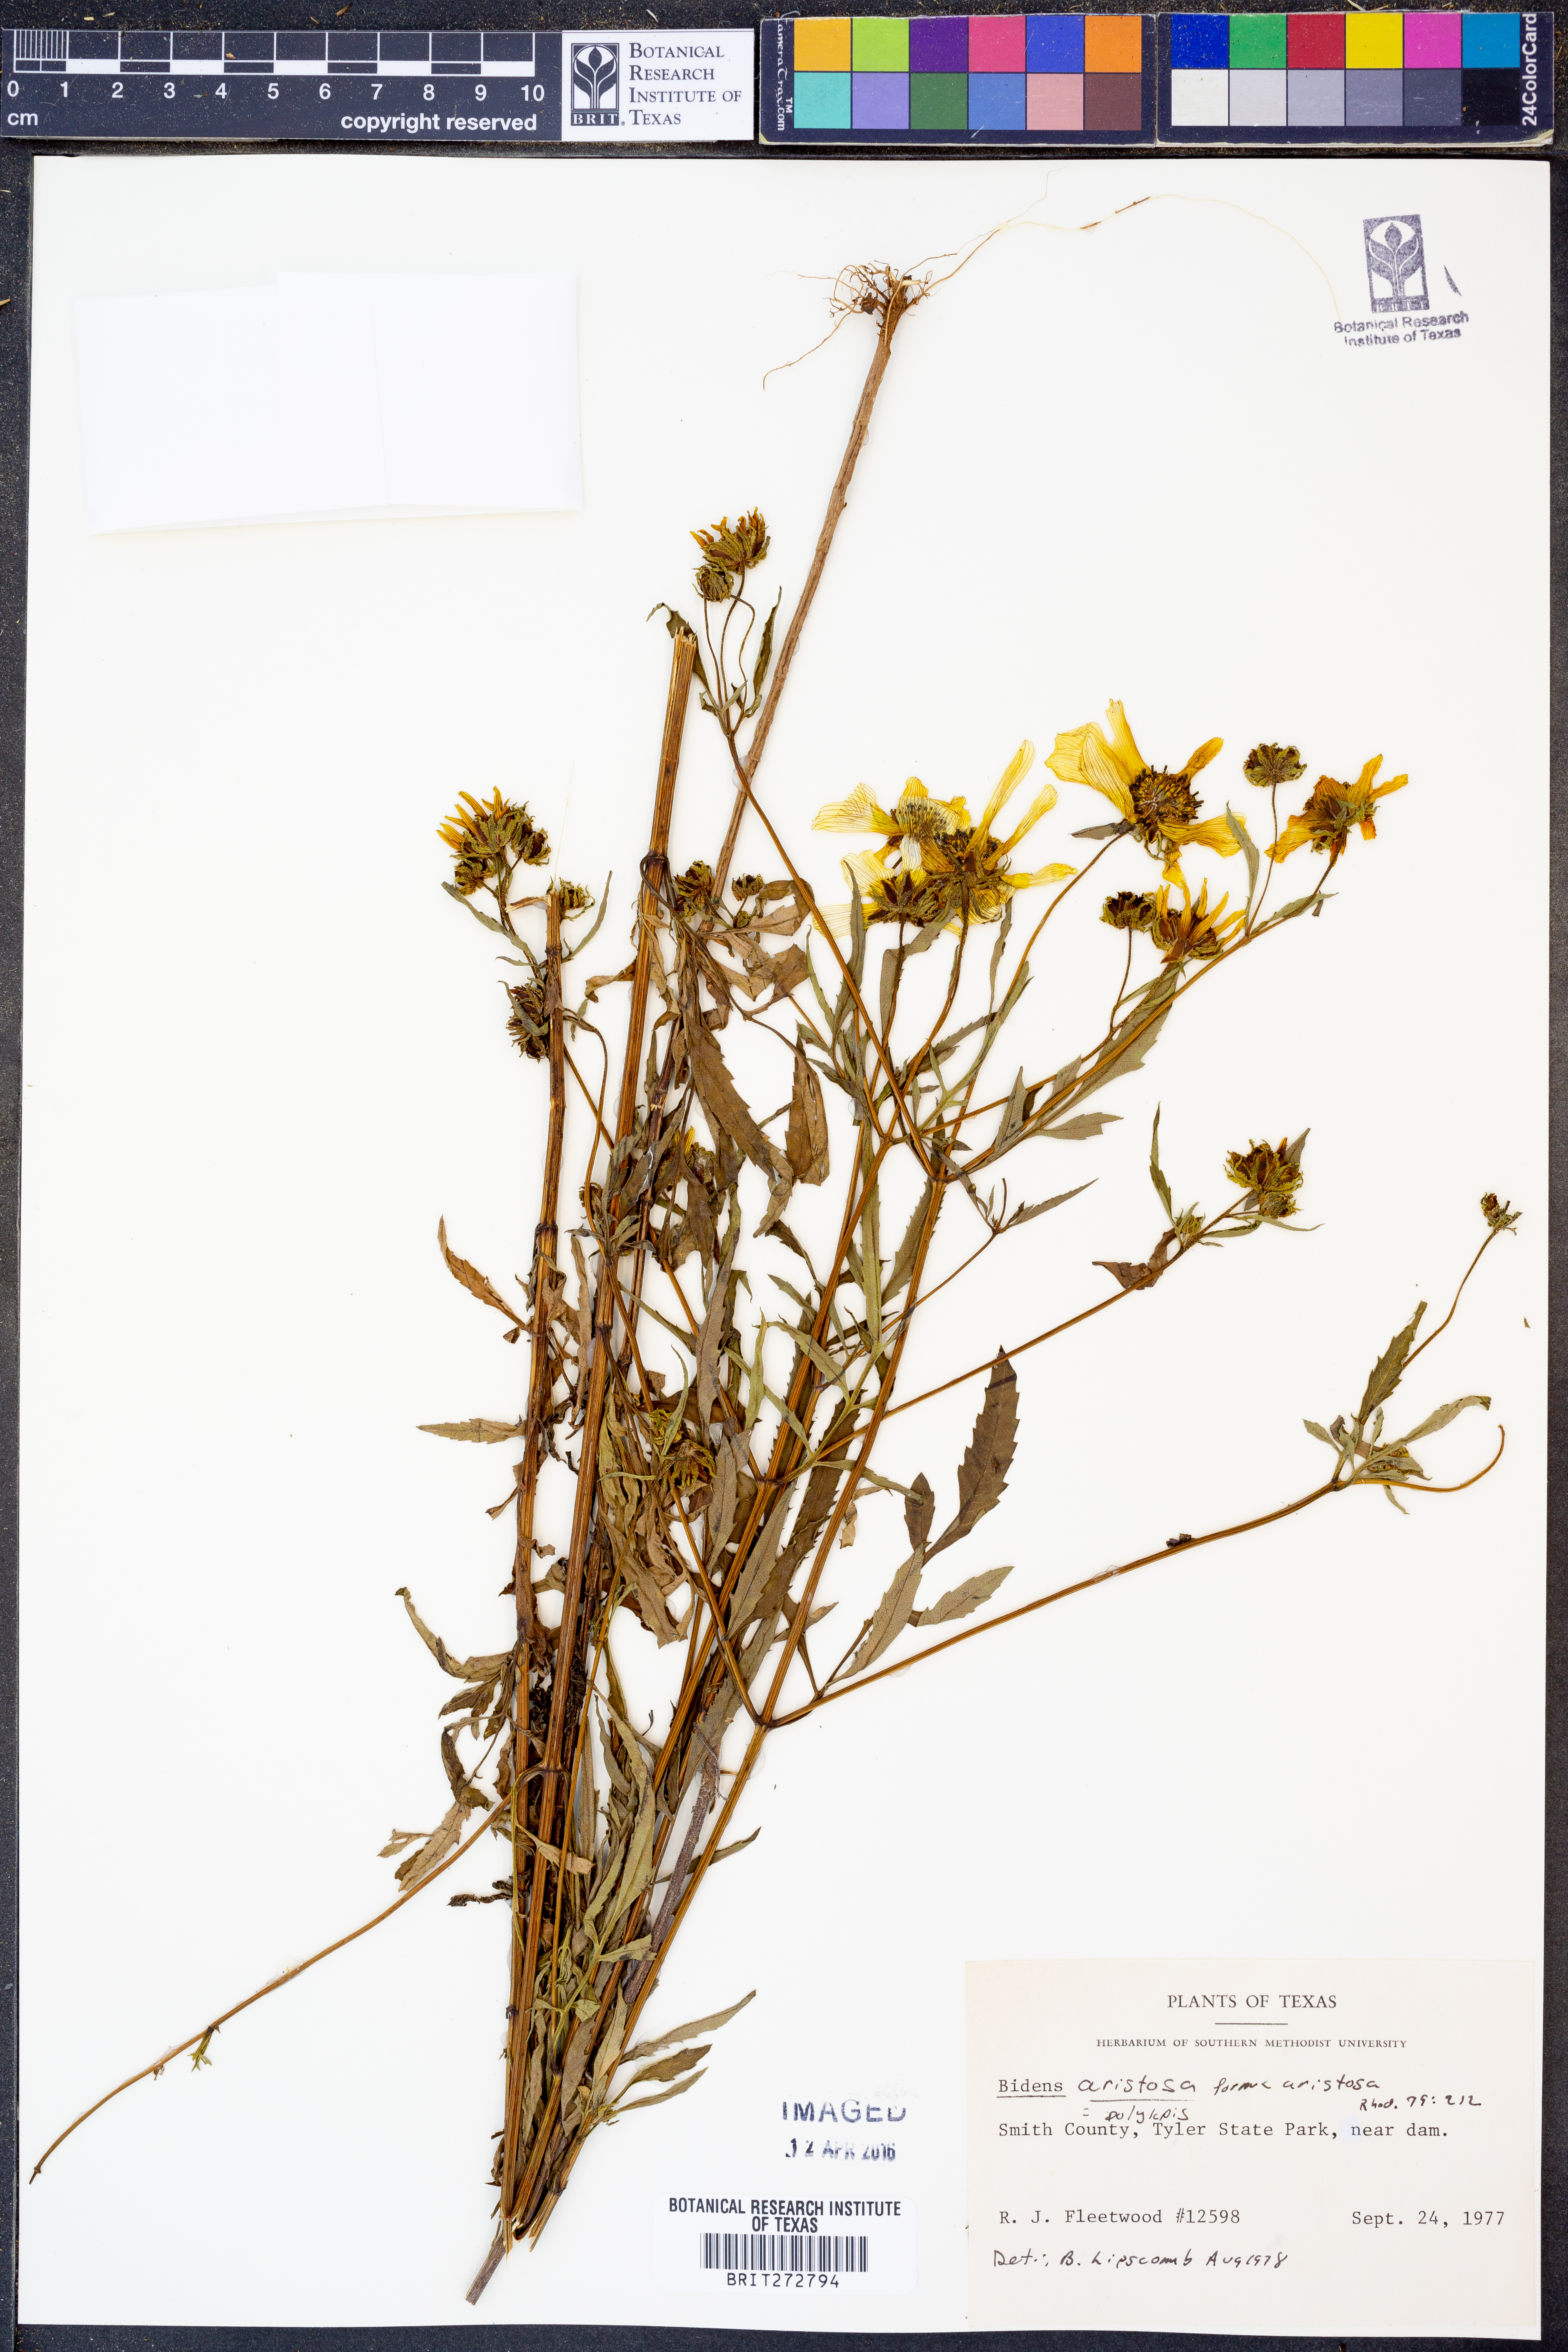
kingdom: Plantae
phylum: Tracheophyta
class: Magnoliopsida
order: Asterales
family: Asteraceae
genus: Bidens
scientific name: Bidens aristosa
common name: Western tickseed
